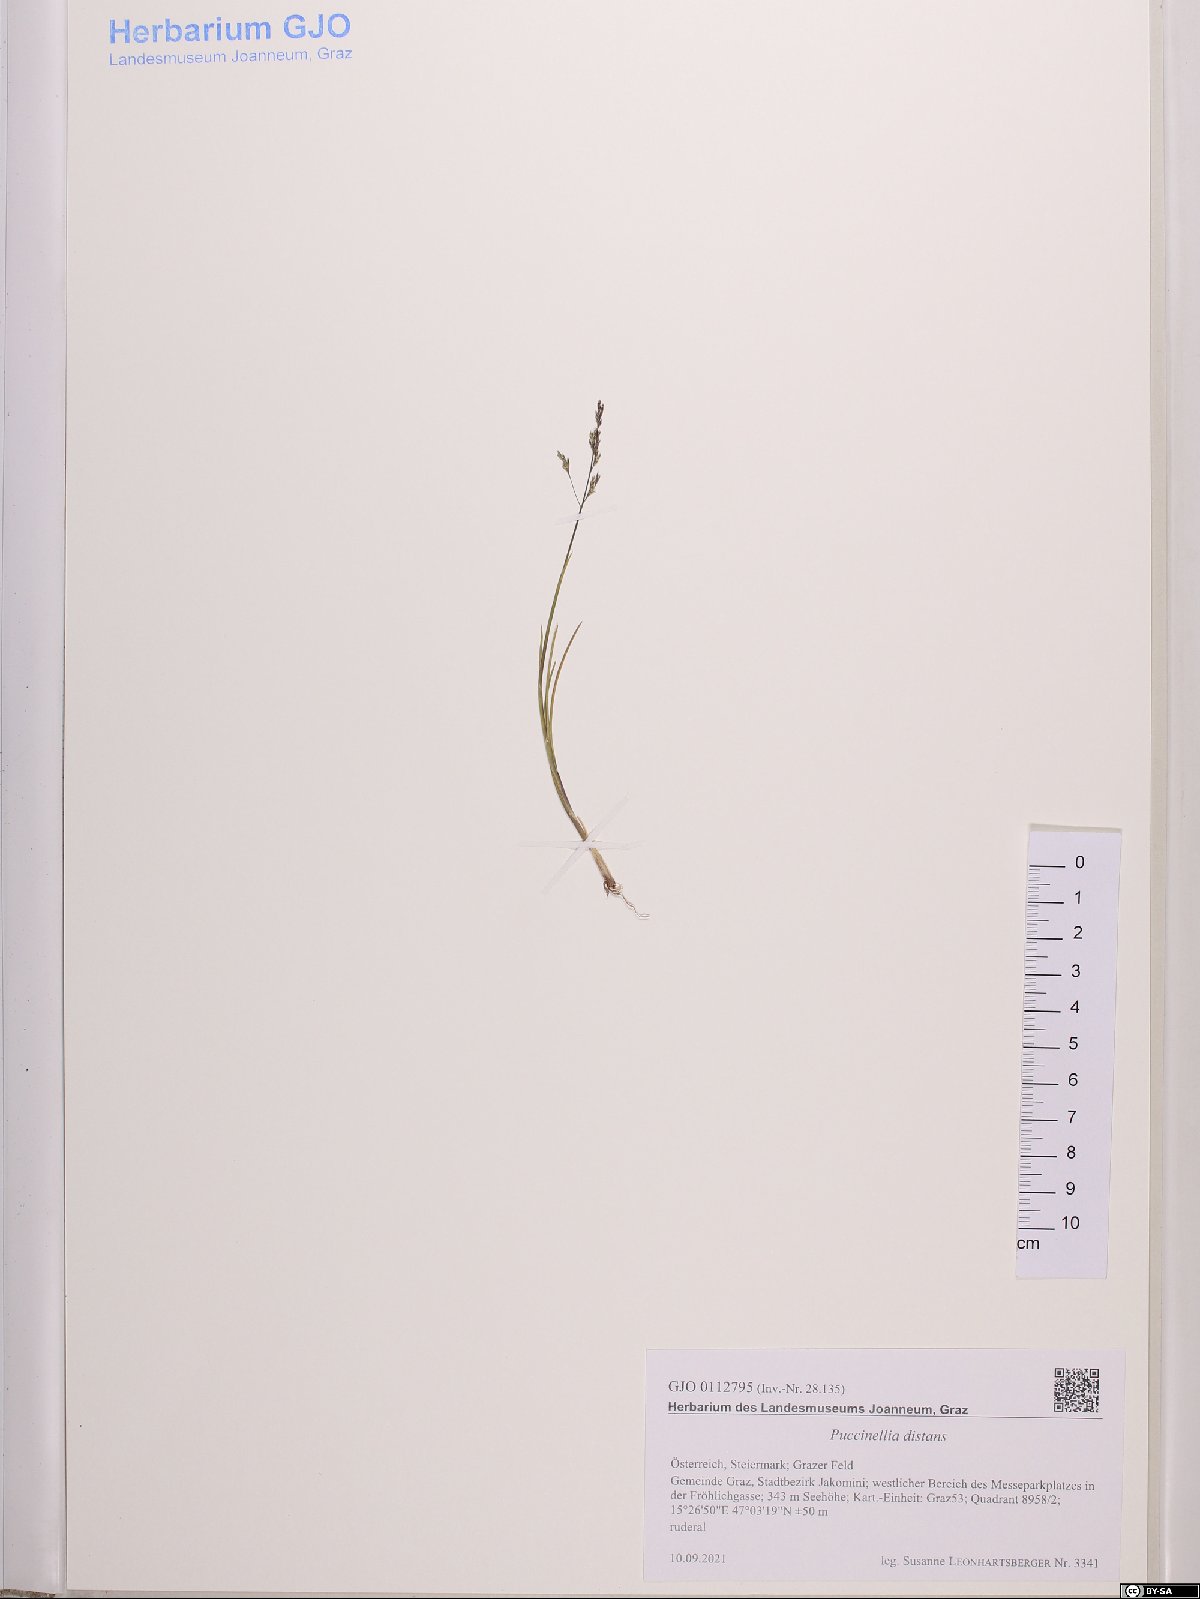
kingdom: Plantae
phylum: Tracheophyta
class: Liliopsida
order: Poales
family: Poaceae
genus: Puccinellia
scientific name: Puccinellia distans
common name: Weeping alkaligrass
